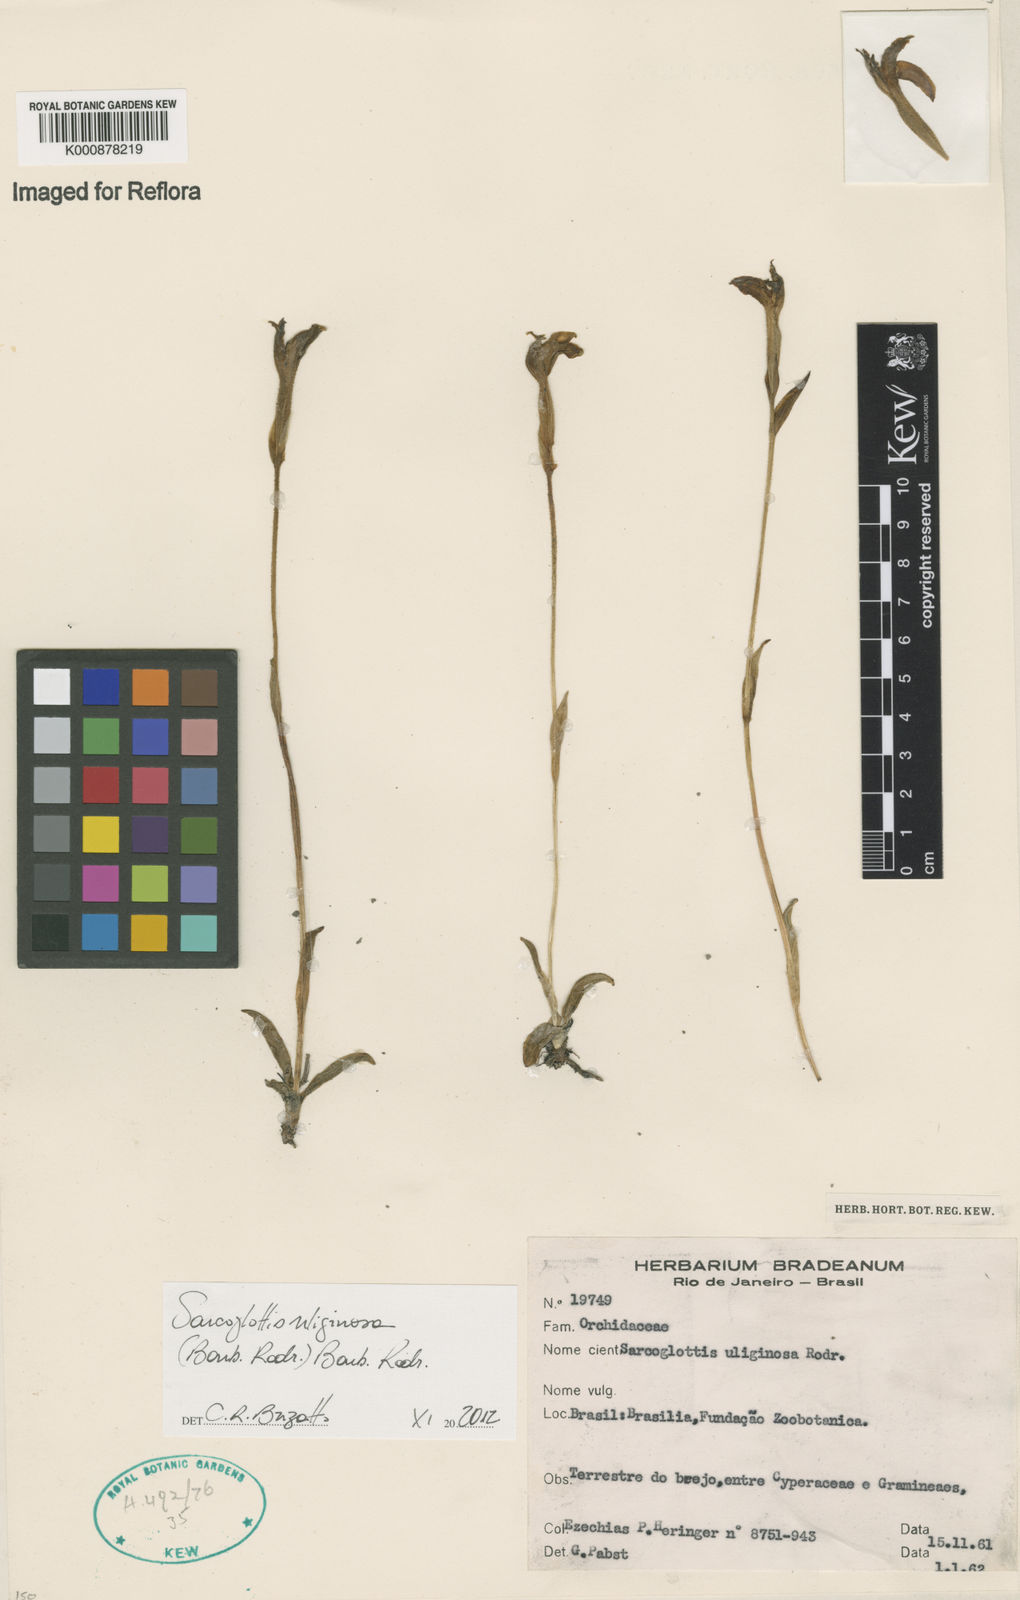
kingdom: Plantae
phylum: Tracheophyta
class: Liliopsida
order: Asparagales
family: Orchidaceae
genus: Sarcoglottis
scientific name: Sarcoglottis uliginosa
